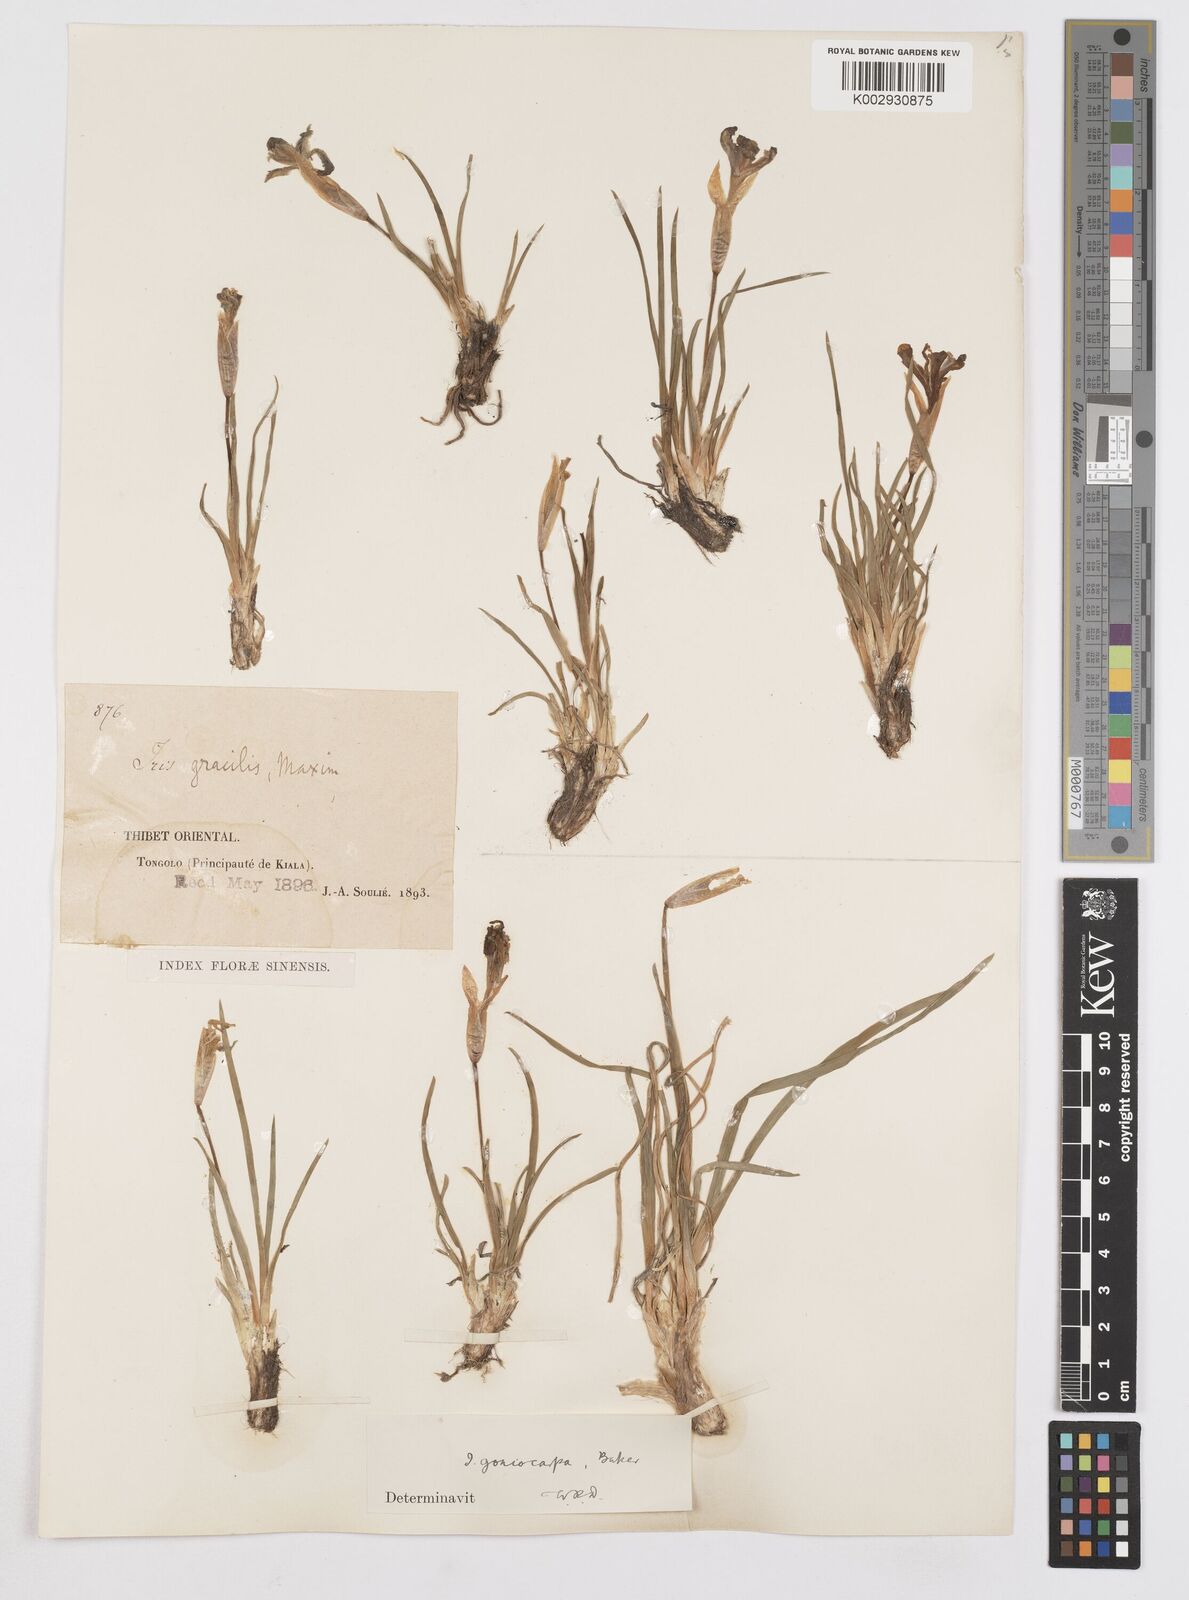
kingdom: Plantae
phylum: Tracheophyta
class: Liliopsida
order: Asparagales
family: Iridaceae
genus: Iris
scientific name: Iris goniocarpa
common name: Angular-fruit iris
